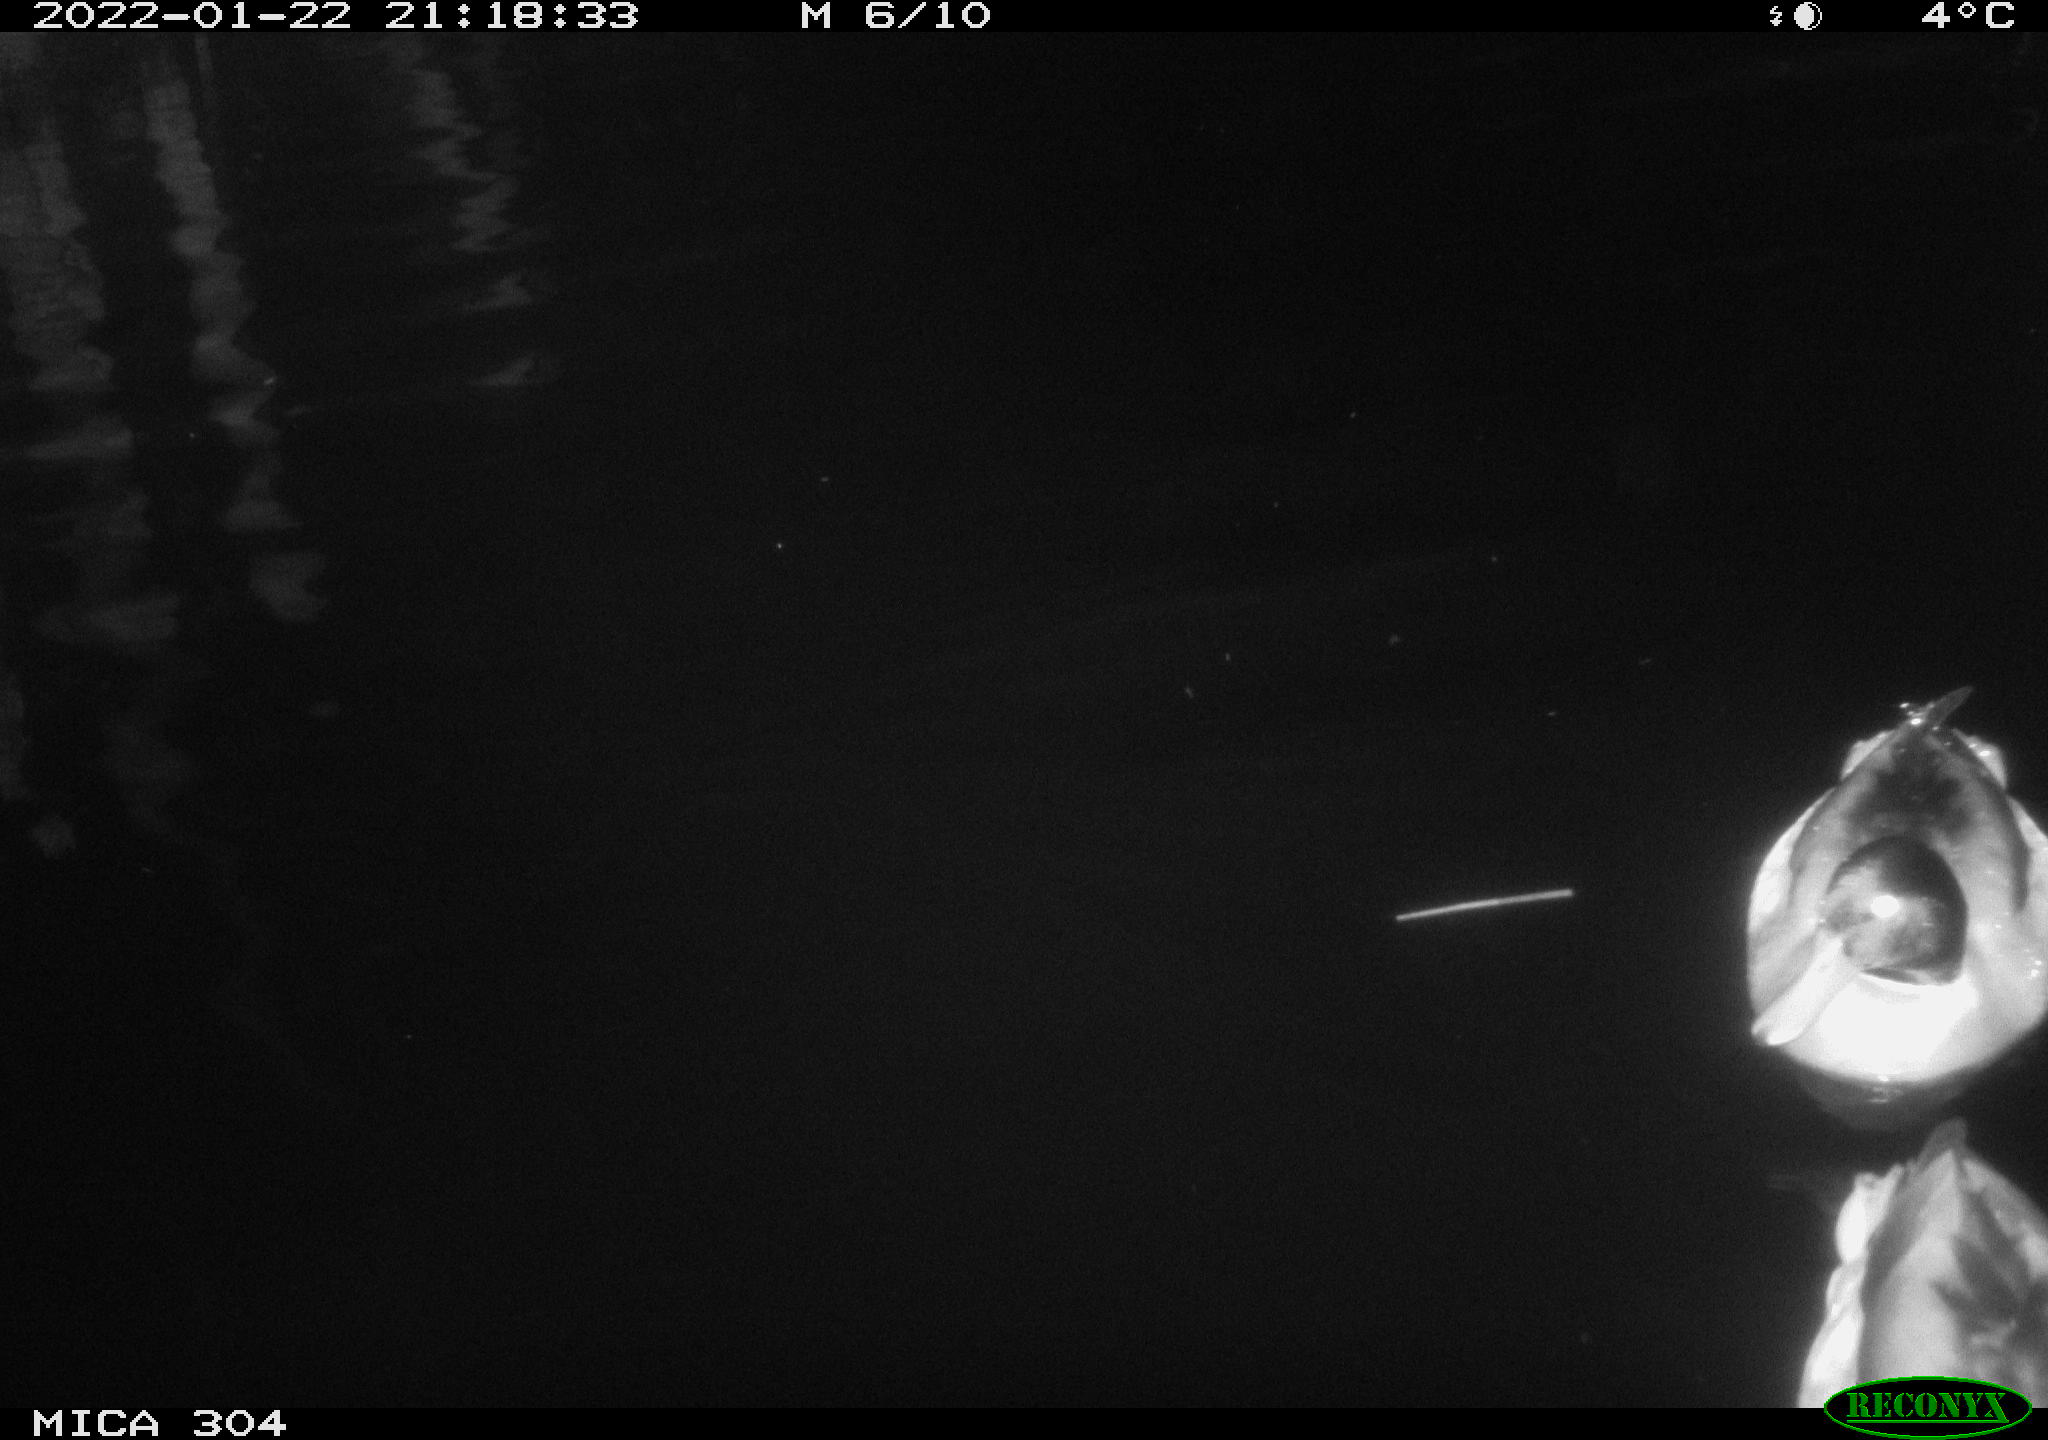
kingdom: Animalia
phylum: Chordata
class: Aves
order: Anseriformes
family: Anatidae
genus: Anas
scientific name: Anas
